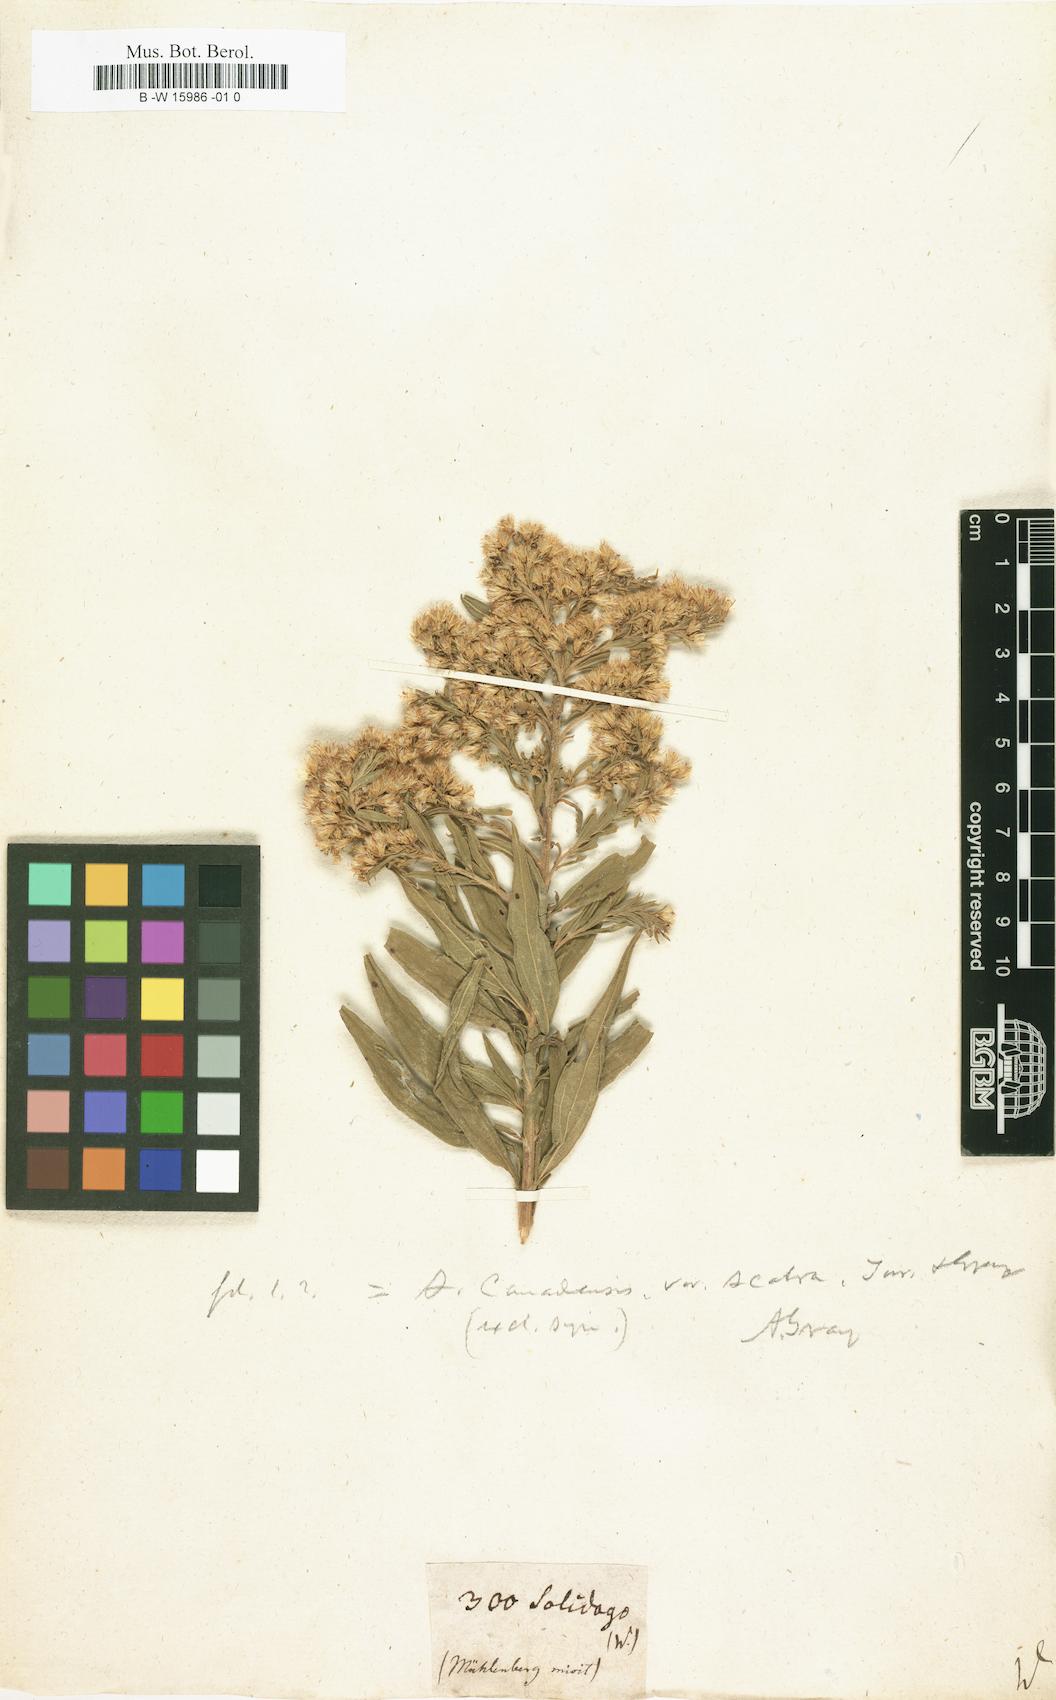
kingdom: Plantae
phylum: Tracheophyta
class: Magnoliopsida
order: Asterales
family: Asteraceae
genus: Solidago
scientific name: Solidago
